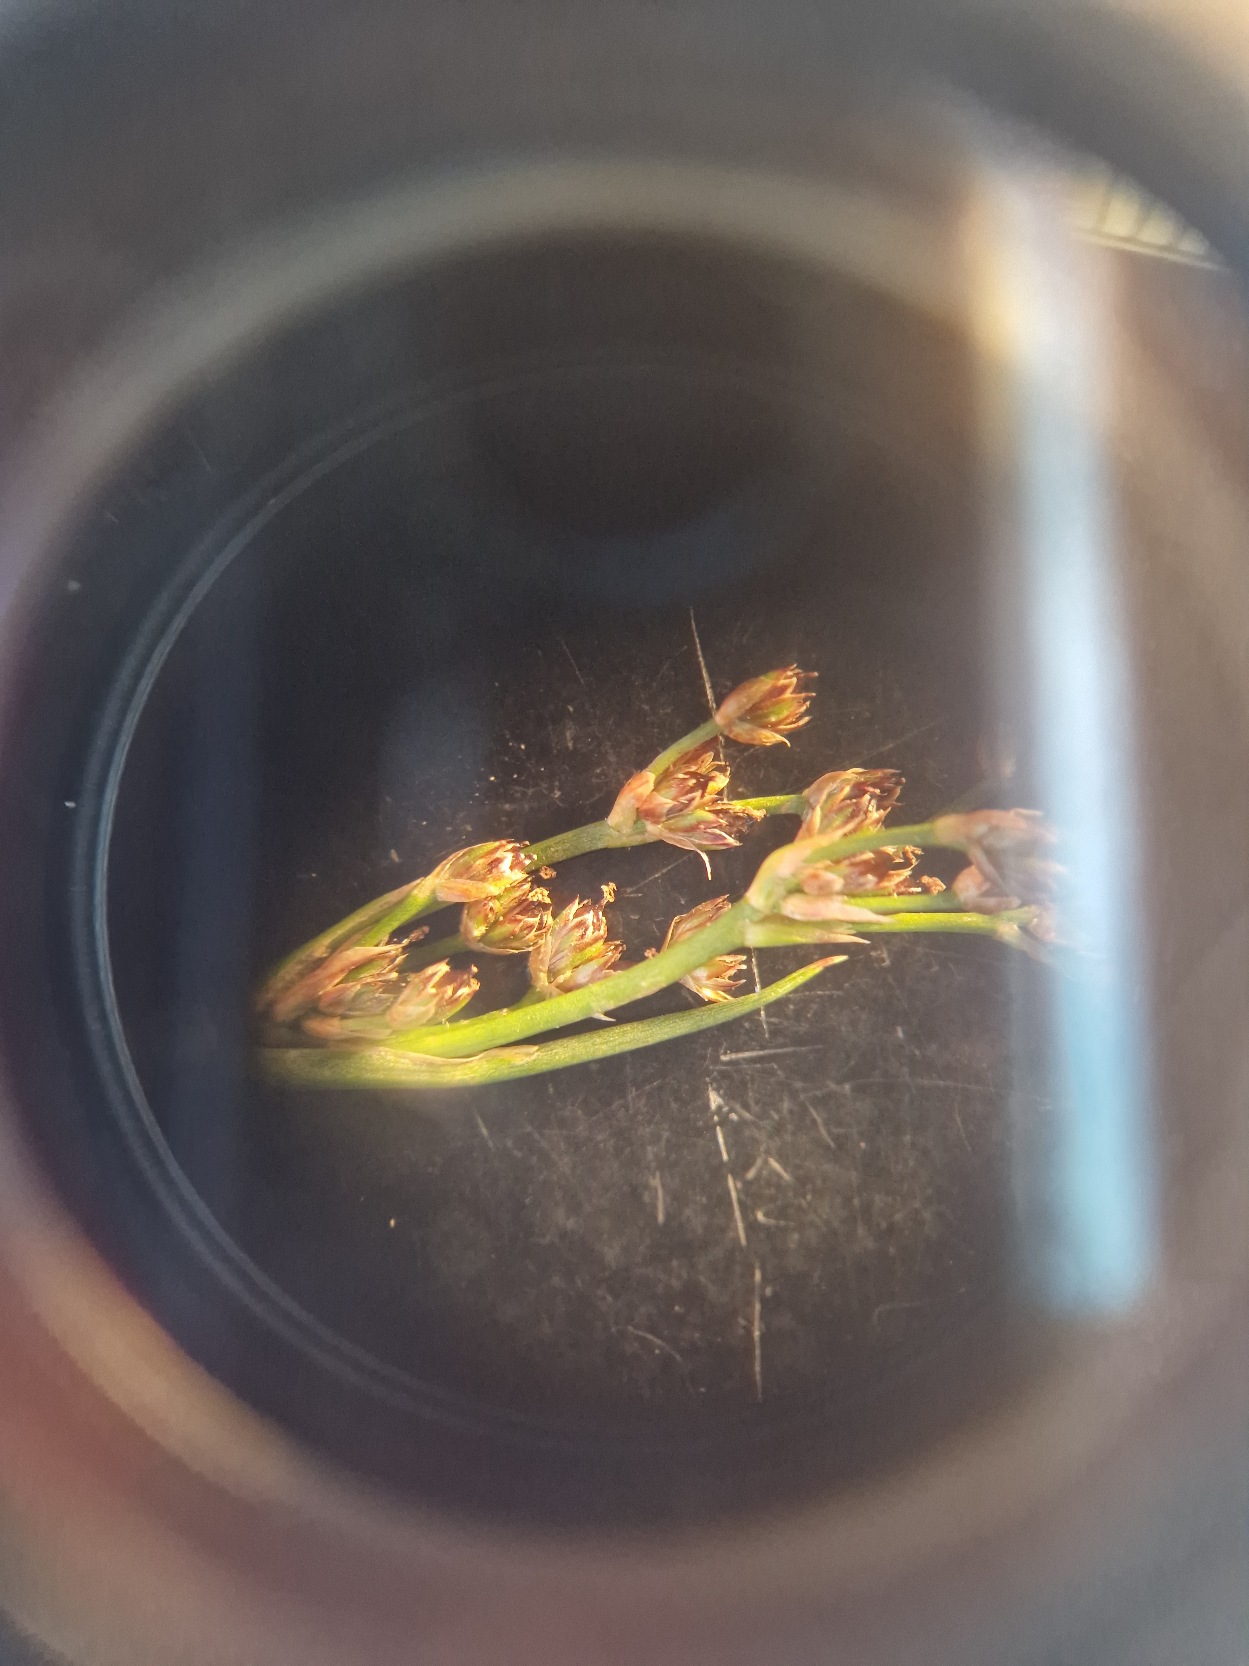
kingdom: Plantae
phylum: Tracheophyta
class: Liliopsida
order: Poales
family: Juncaceae
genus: Juncus
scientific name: Juncus articulatus
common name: Glanskapslet siv
